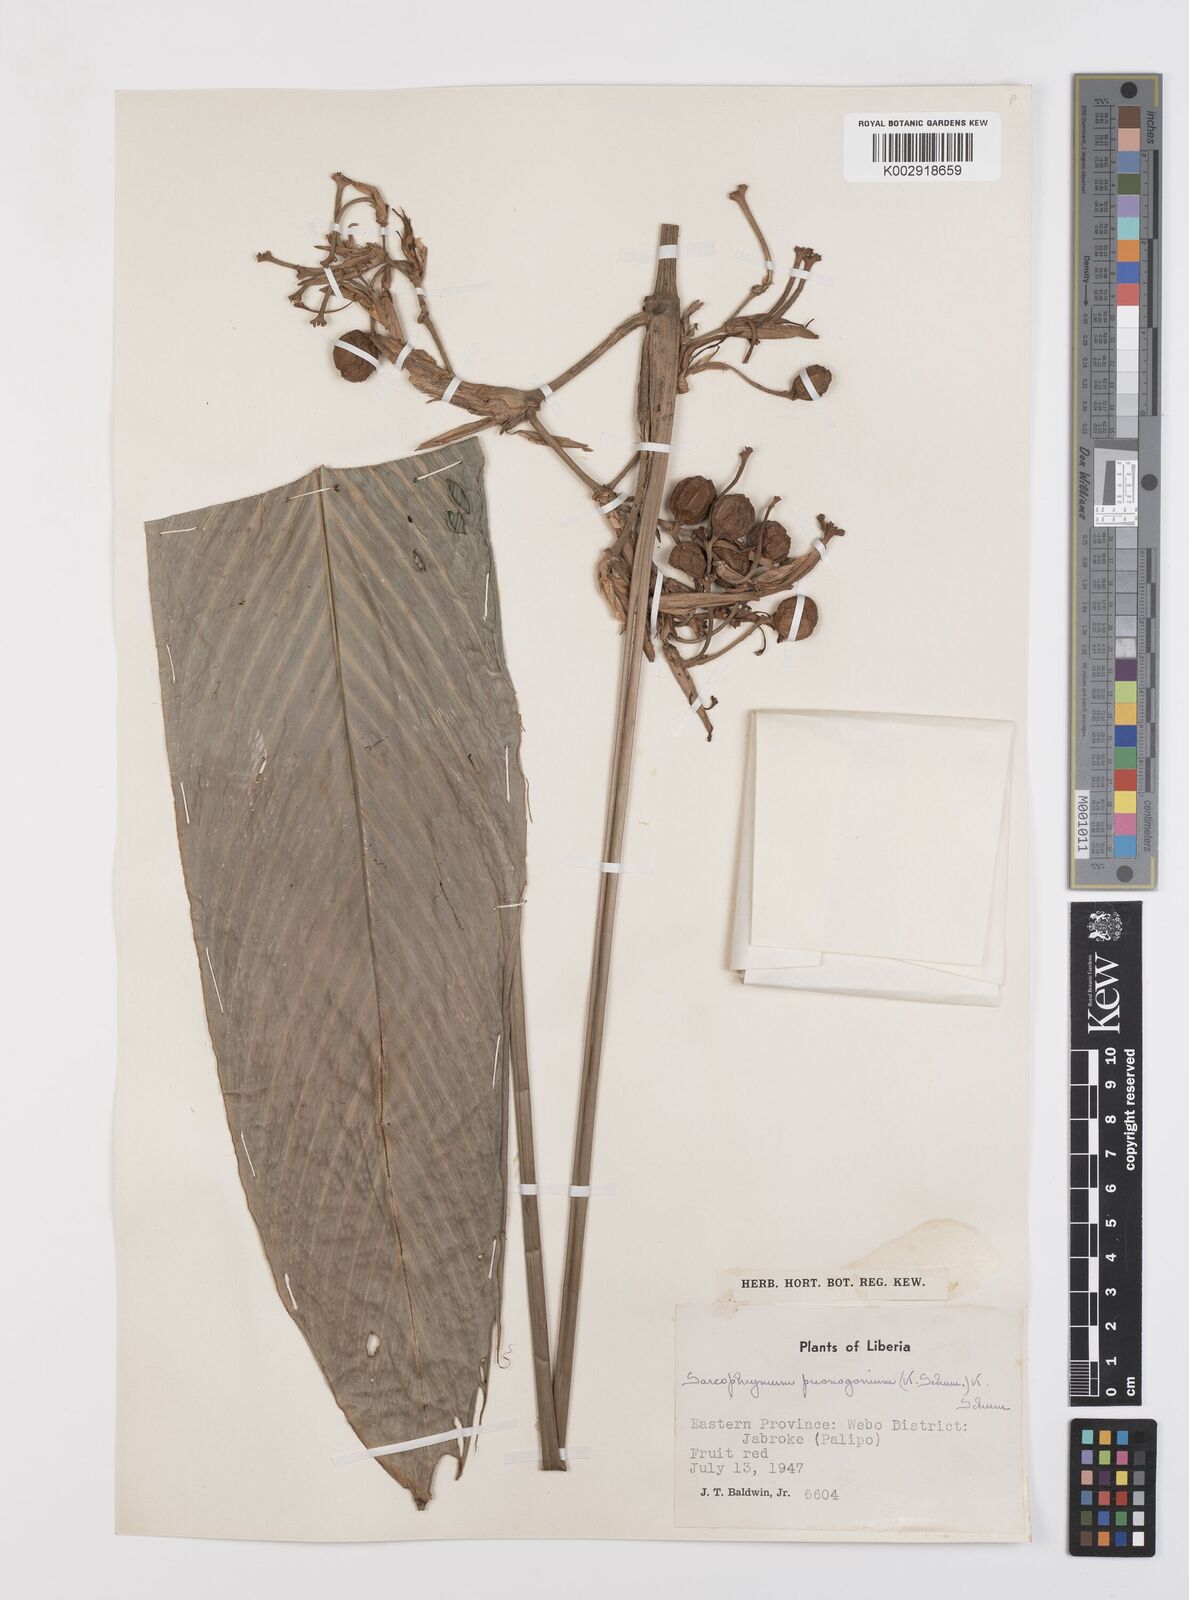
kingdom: Plantae
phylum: Tracheophyta
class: Liliopsida
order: Zingiberales
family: Marantaceae
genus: Sarcophrynium
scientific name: Sarcophrynium prionogonium
